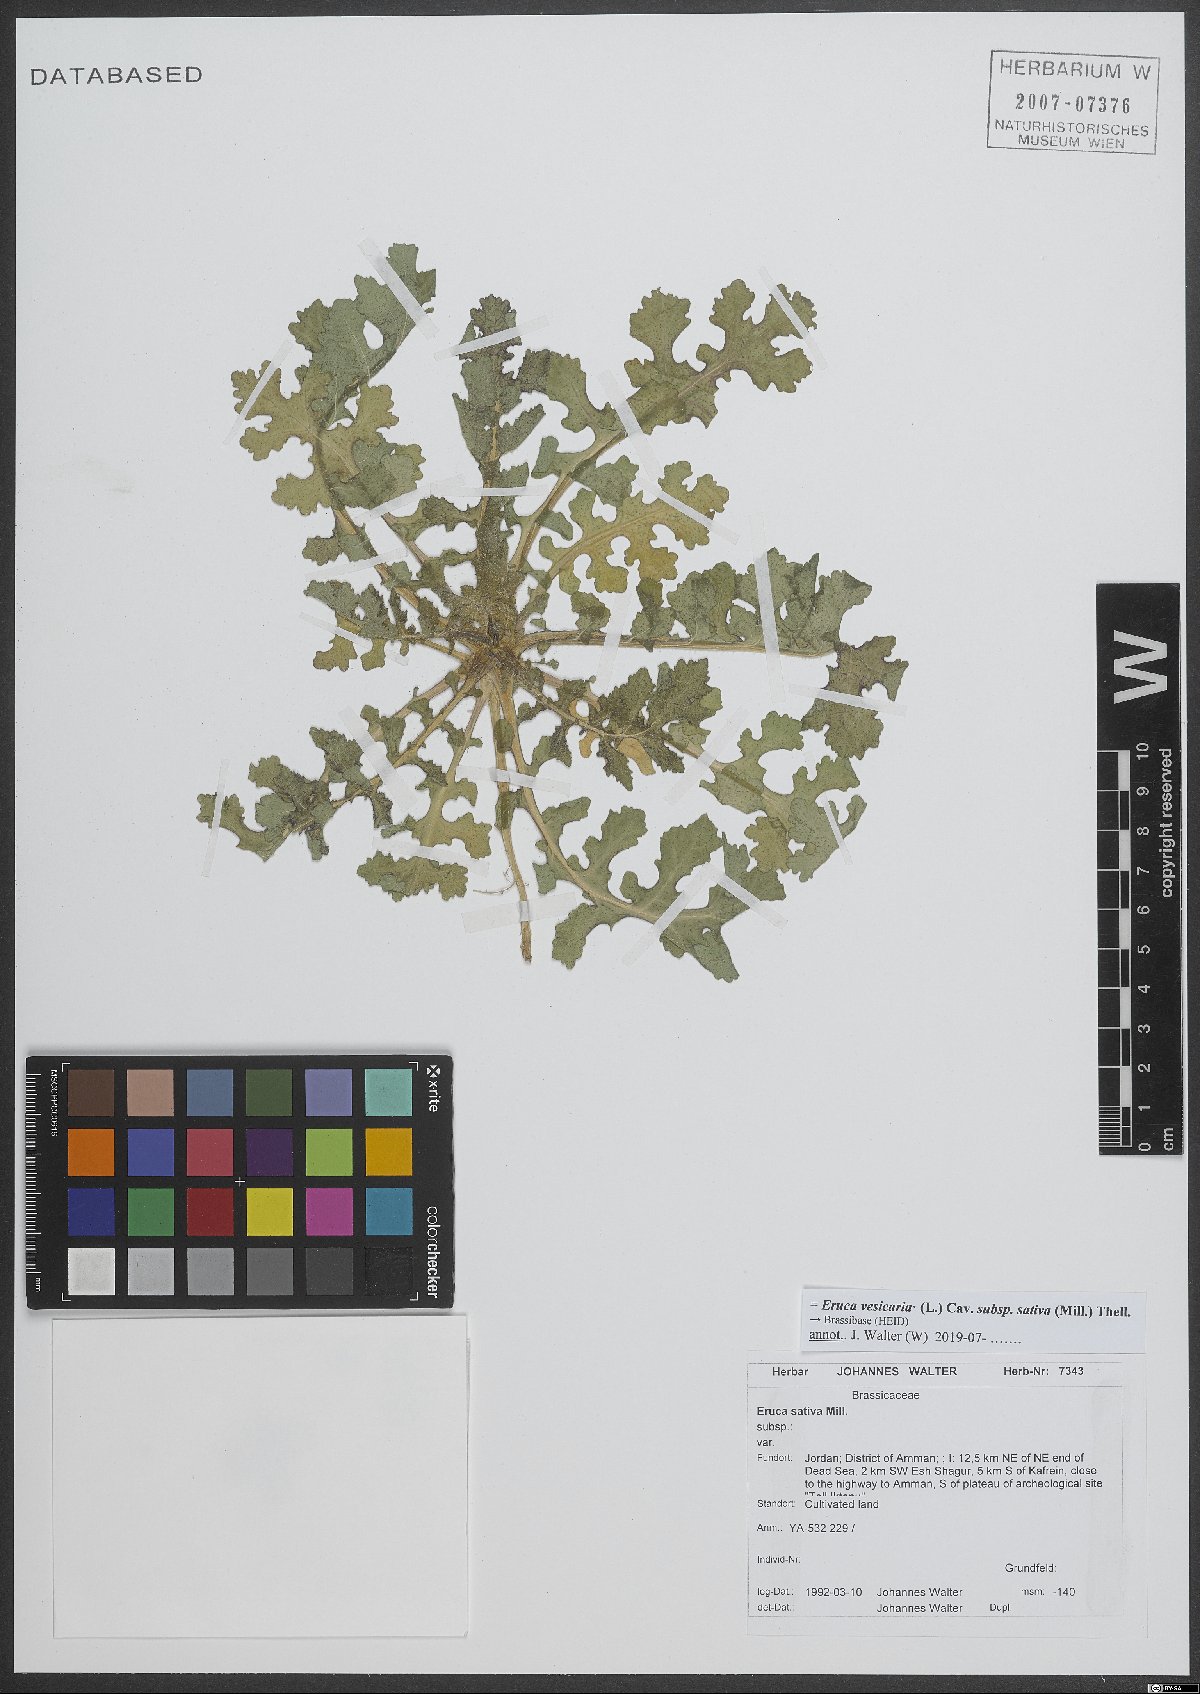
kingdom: Plantae
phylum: Tracheophyta
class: Magnoliopsida
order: Brassicales
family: Brassicaceae
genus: Eruca
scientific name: Eruca vesicaria
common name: Garden rocket
